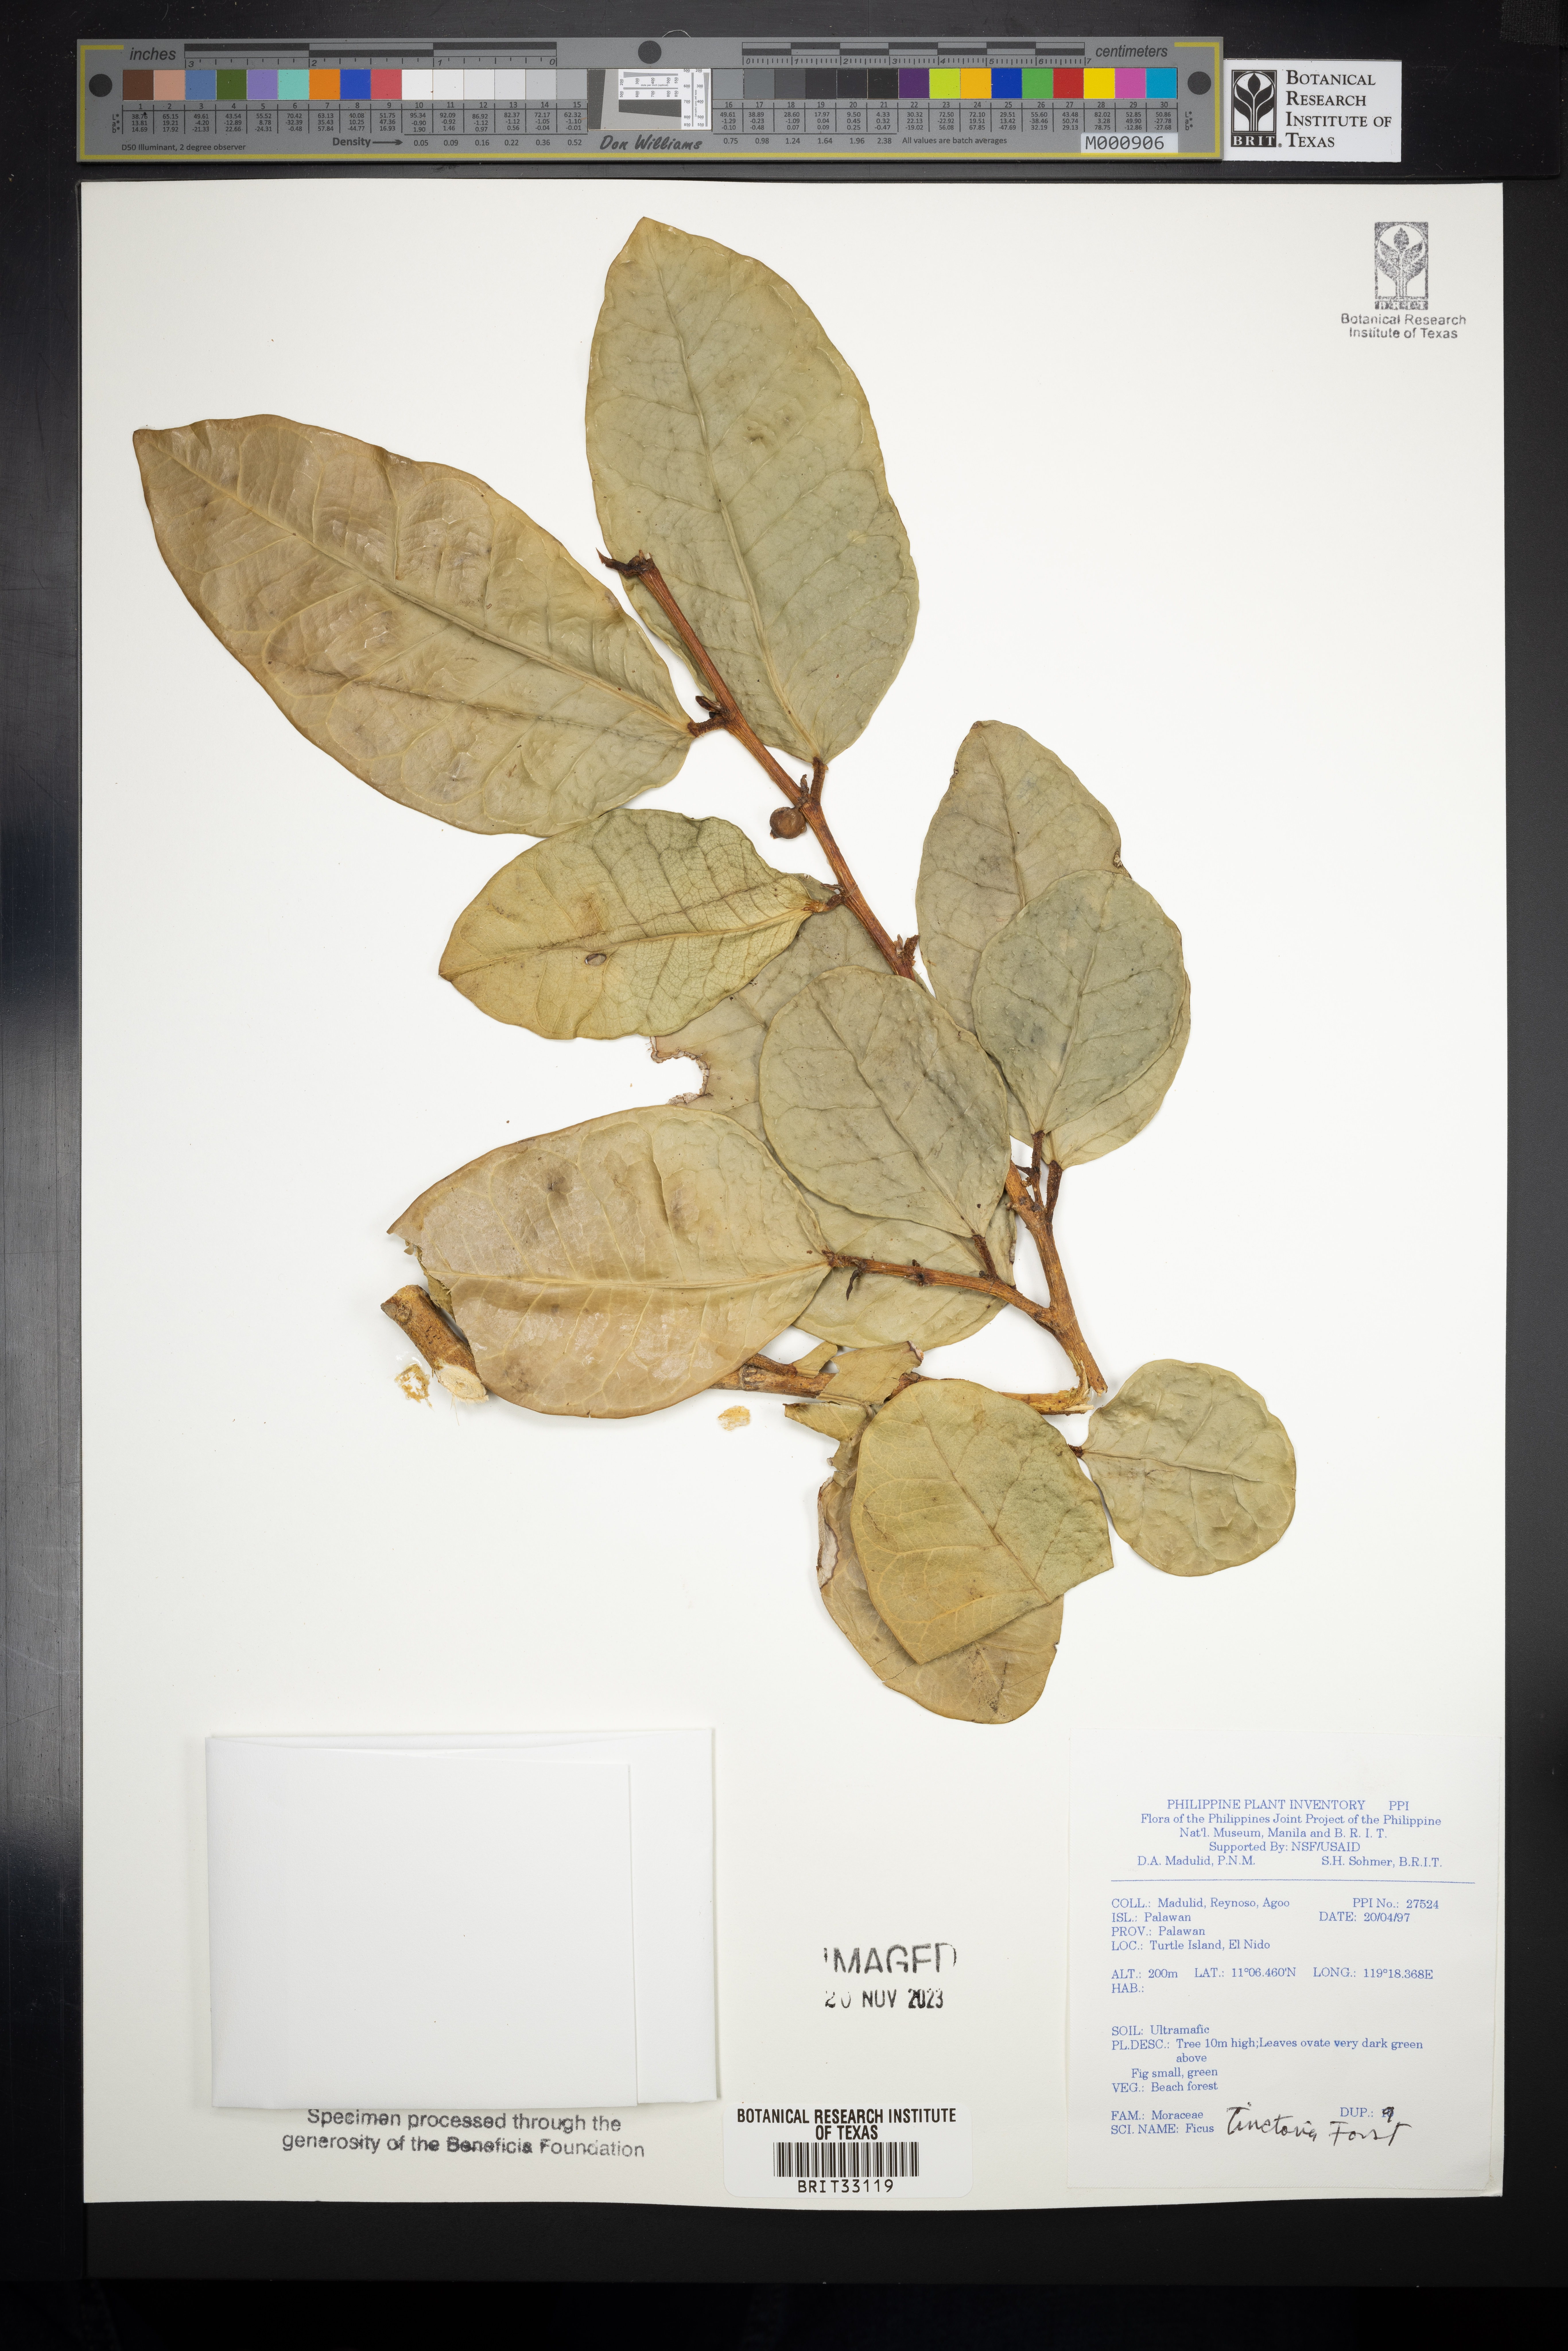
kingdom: Plantae
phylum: Tracheophyta
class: Magnoliopsida
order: Rosales
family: Moraceae
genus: Ficus
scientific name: Ficus tinctoria
